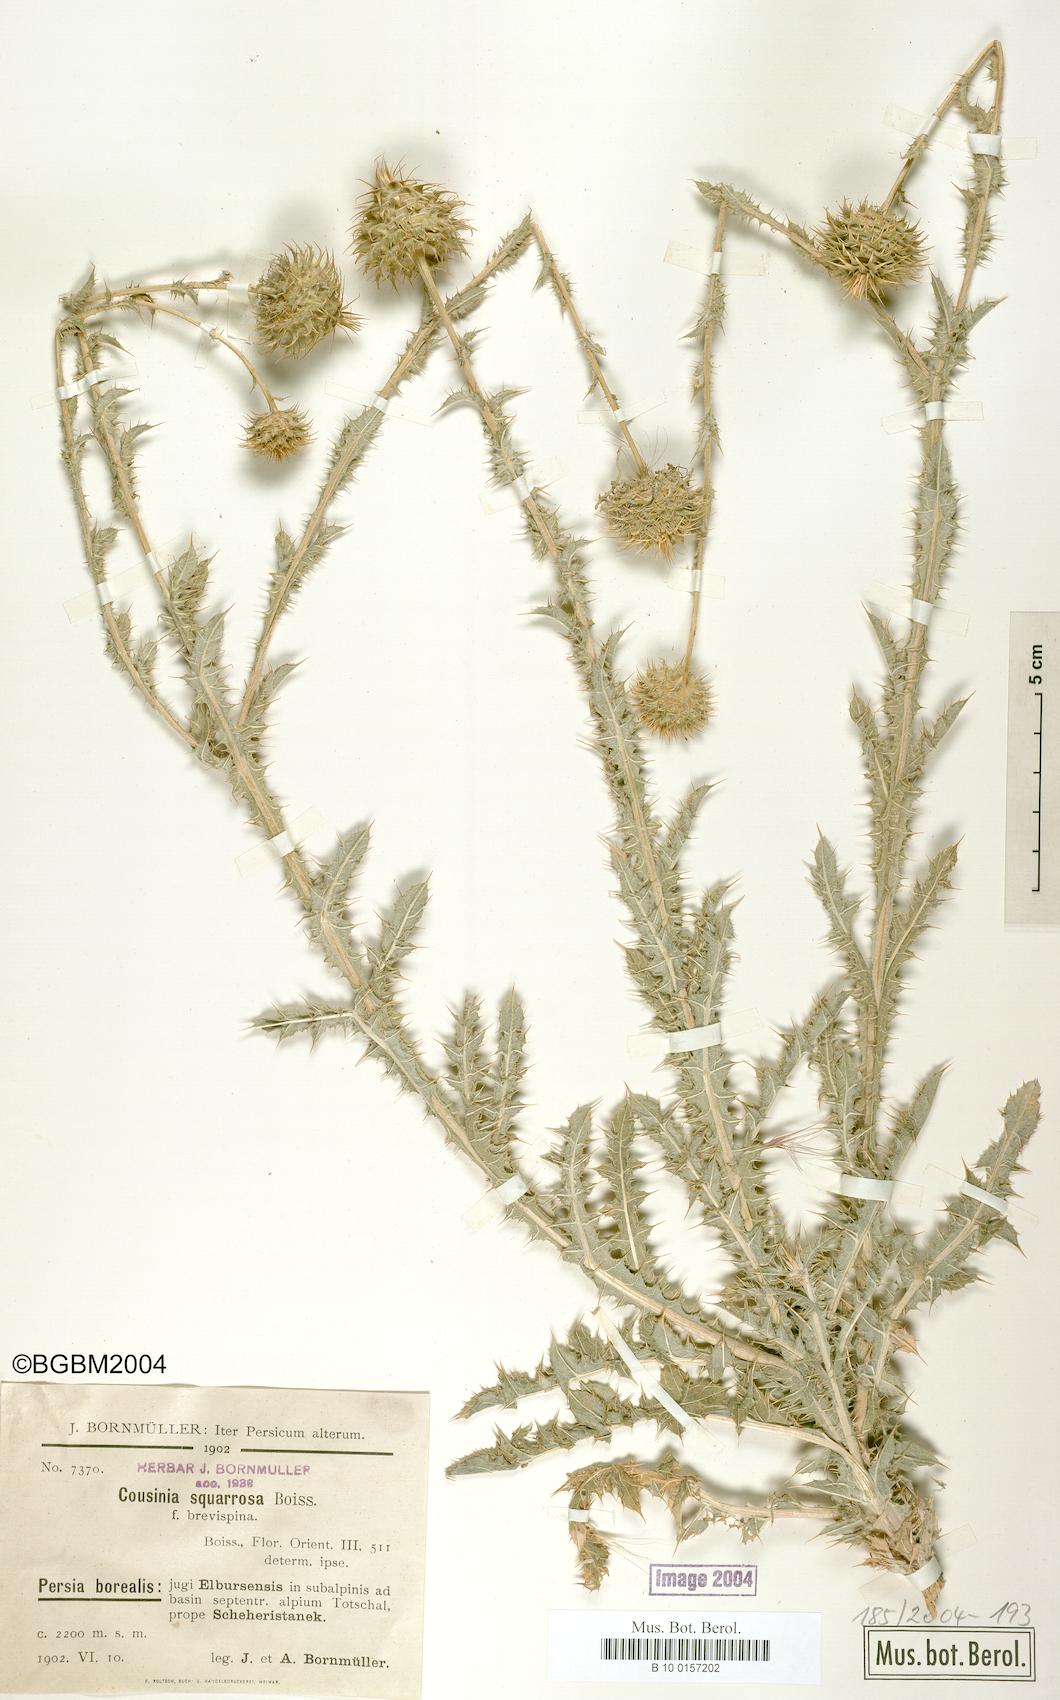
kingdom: Plantae
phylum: Tracheophyta
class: Magnoliopsida
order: Asterales
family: Asteraceae
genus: Cousinia
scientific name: Cousinia
